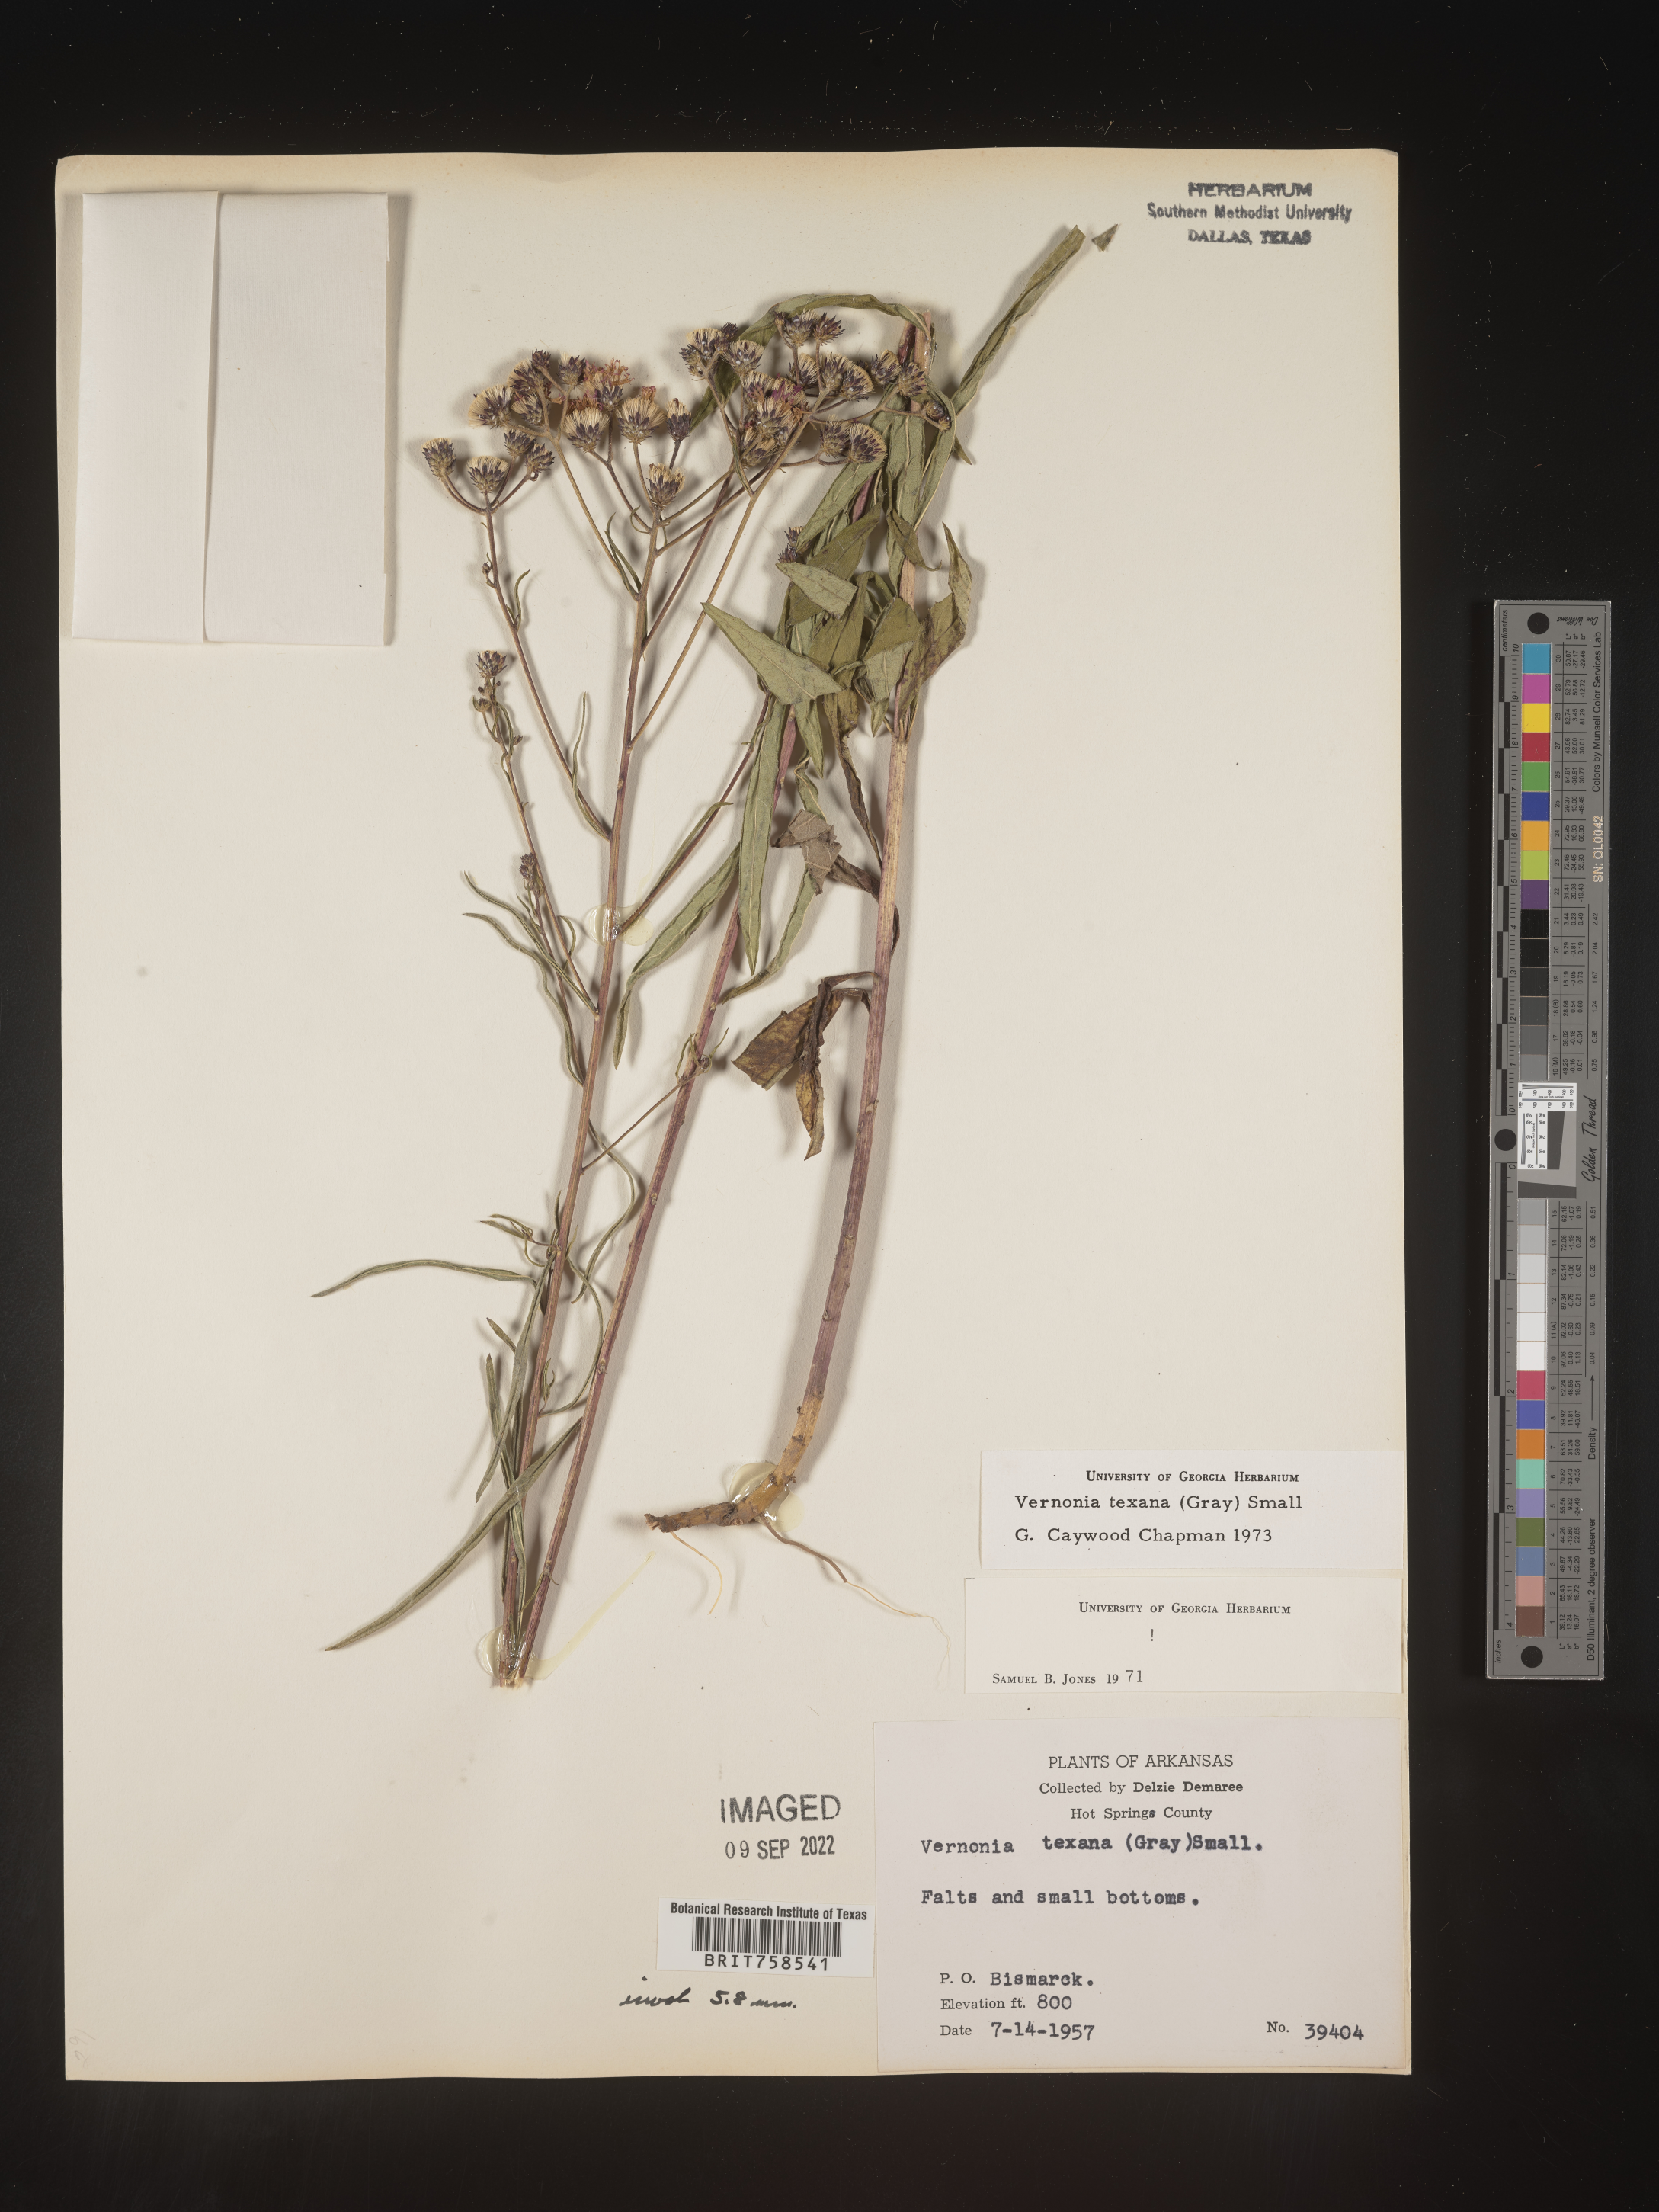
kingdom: Plantae
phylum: Tracheophyta
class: Magnoliopsida
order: Asterales
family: Asteraceae
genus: Vernonia
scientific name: Vernonia texana
